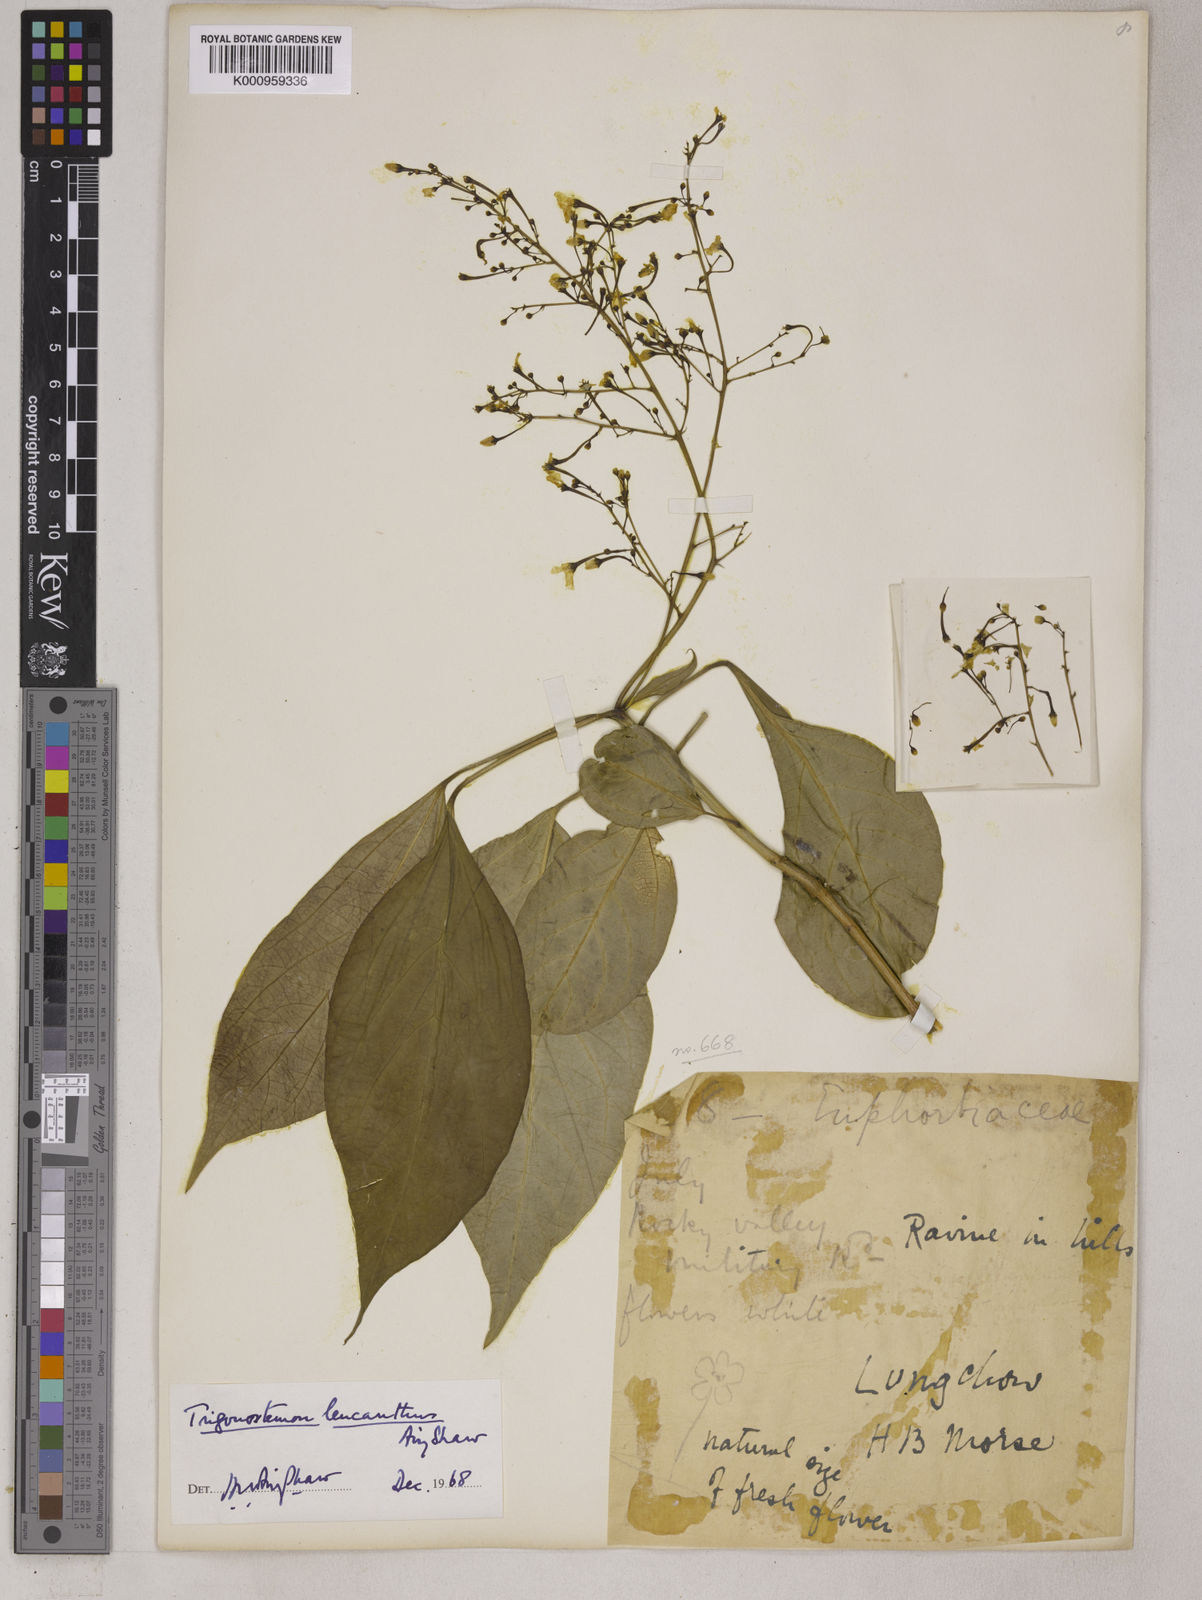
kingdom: Plantae
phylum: Tracheophyta
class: Magnoliopsida
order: Malpighiales
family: Euphorbiaceae
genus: Trigonostemon
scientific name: Trigonostemon eberhardtii
